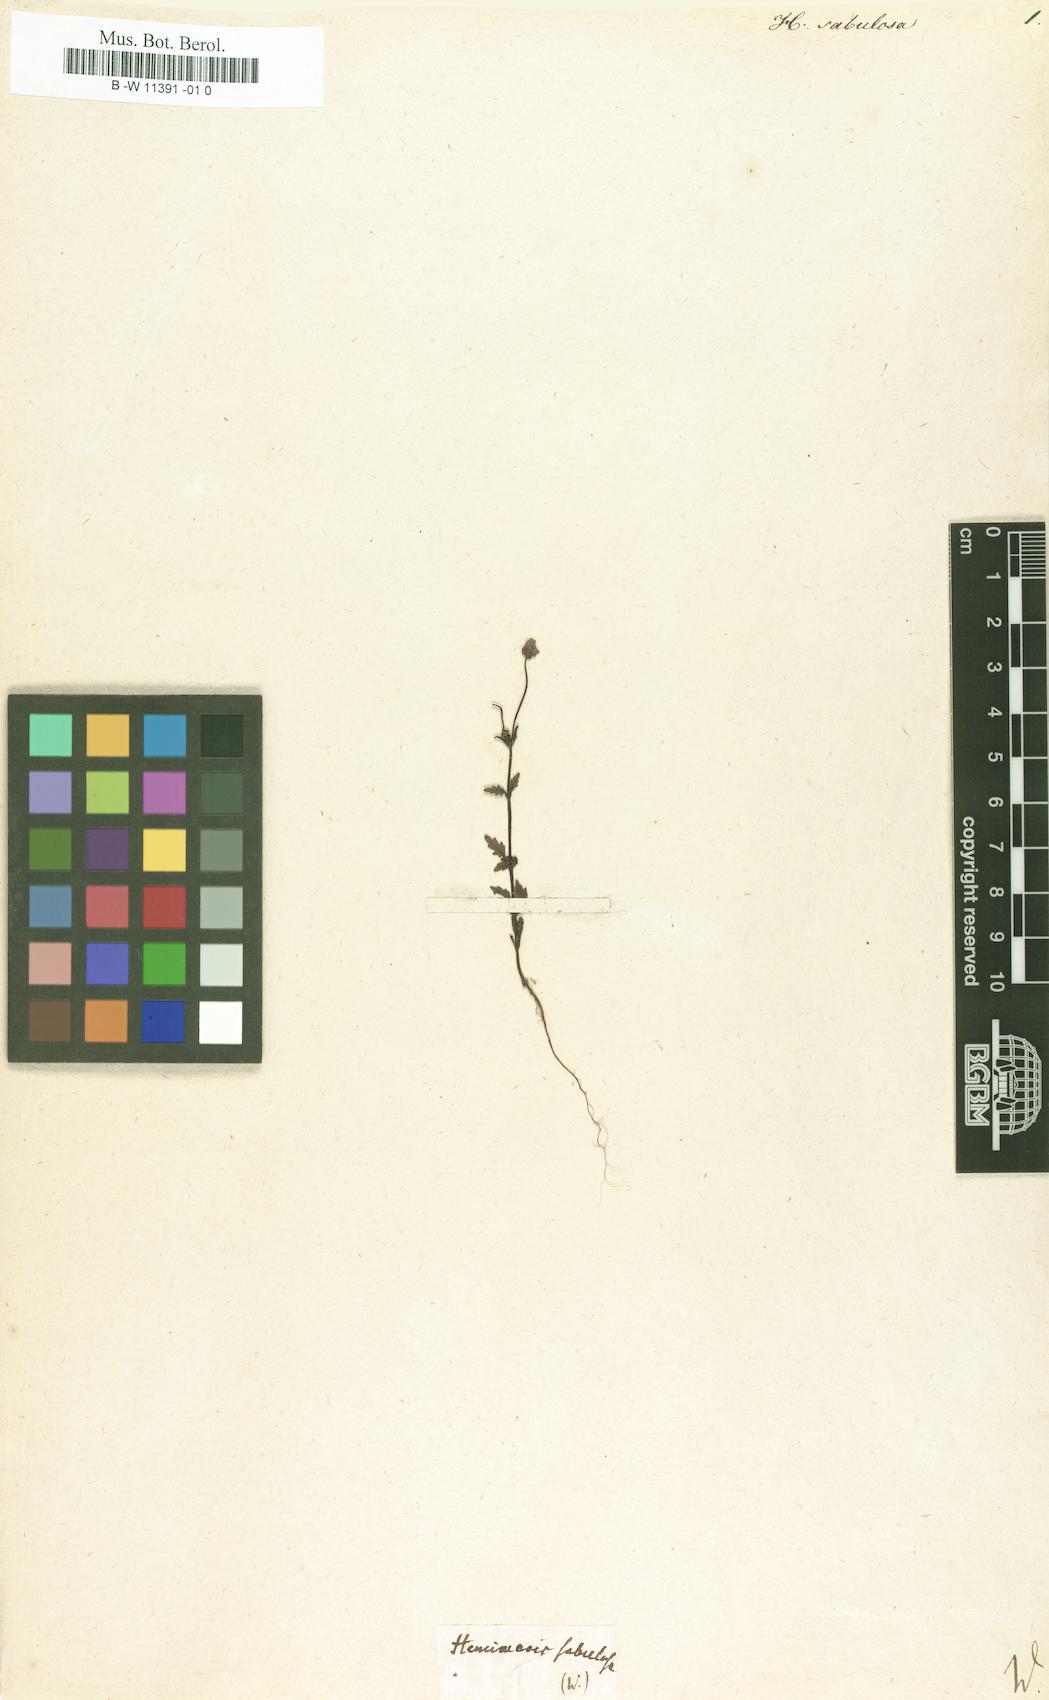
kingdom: Plantae
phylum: Tracheophyta
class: Magnoliopsida
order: Lamiales
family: Scrophulariaceae
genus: Hemimeris
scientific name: Hemimeris sabulosa
